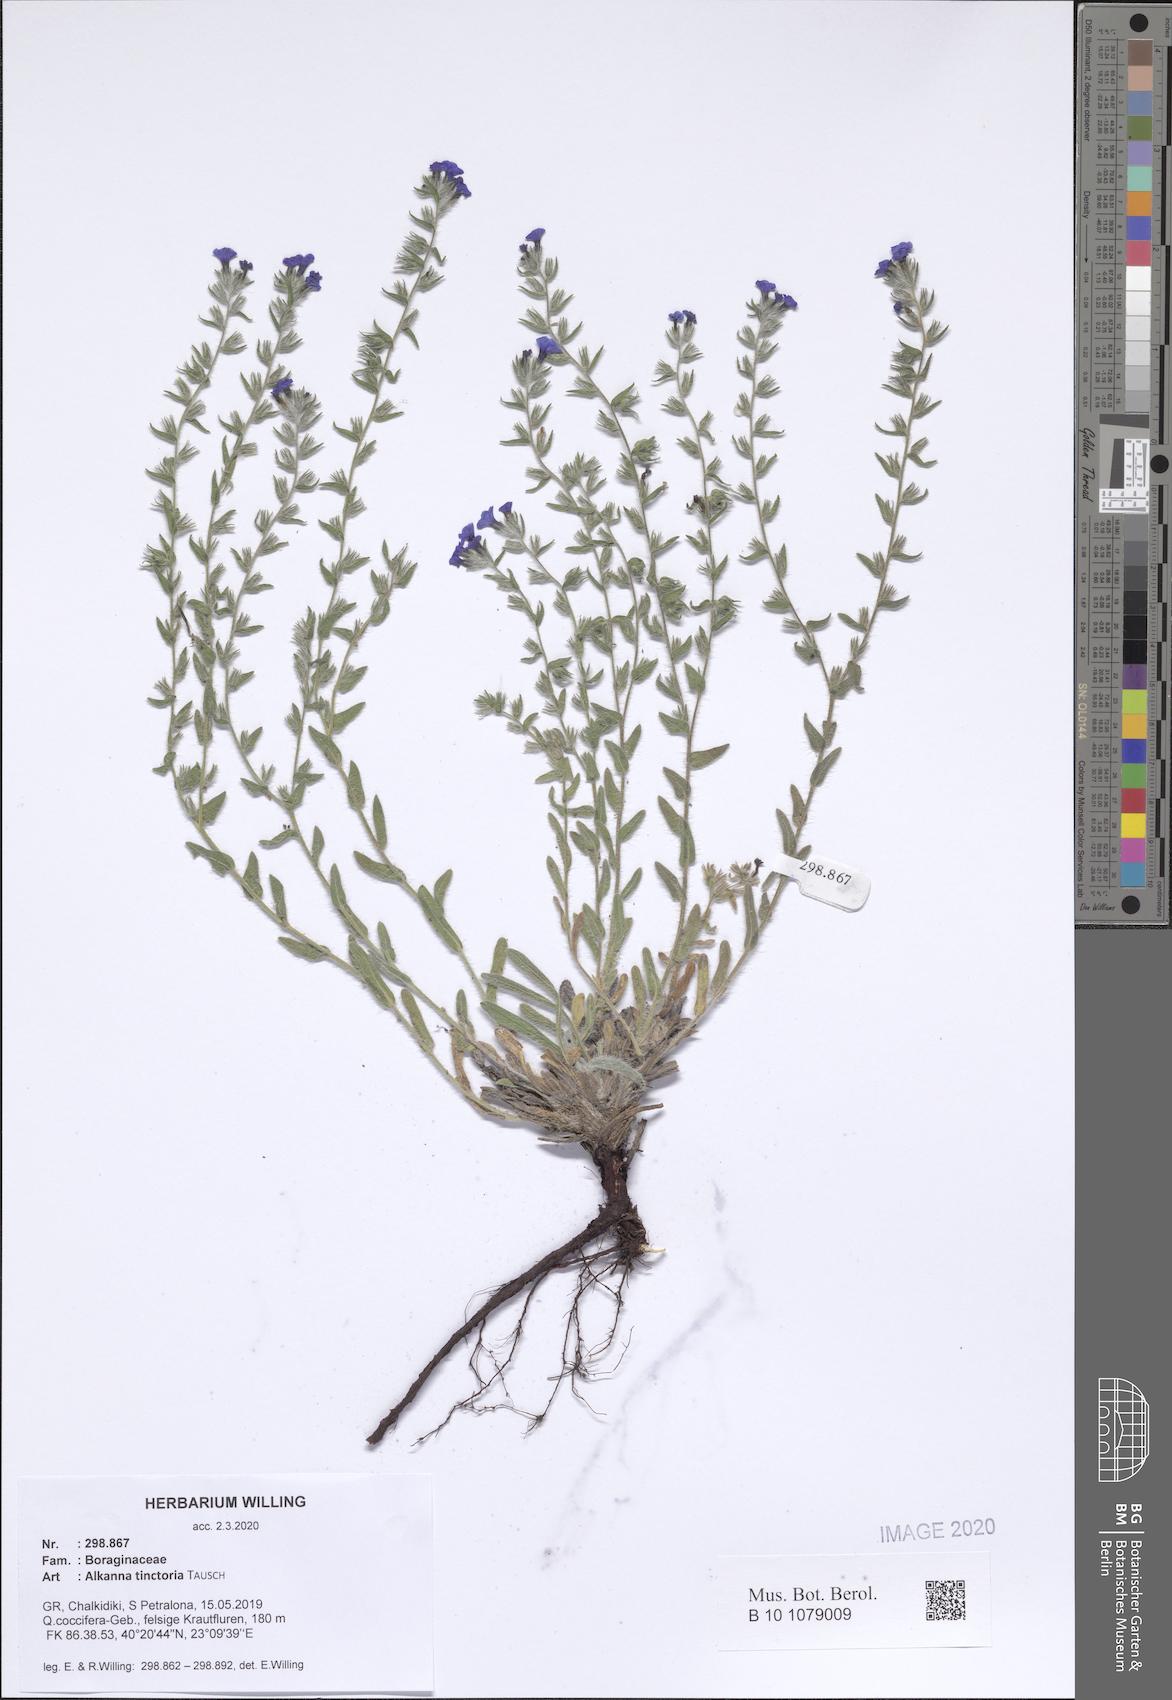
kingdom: Plantae
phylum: Tracheophyta
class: Magnoliopsida
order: Boraginales
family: Boraginaceae
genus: Alkanna
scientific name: Alkanna pindicola
